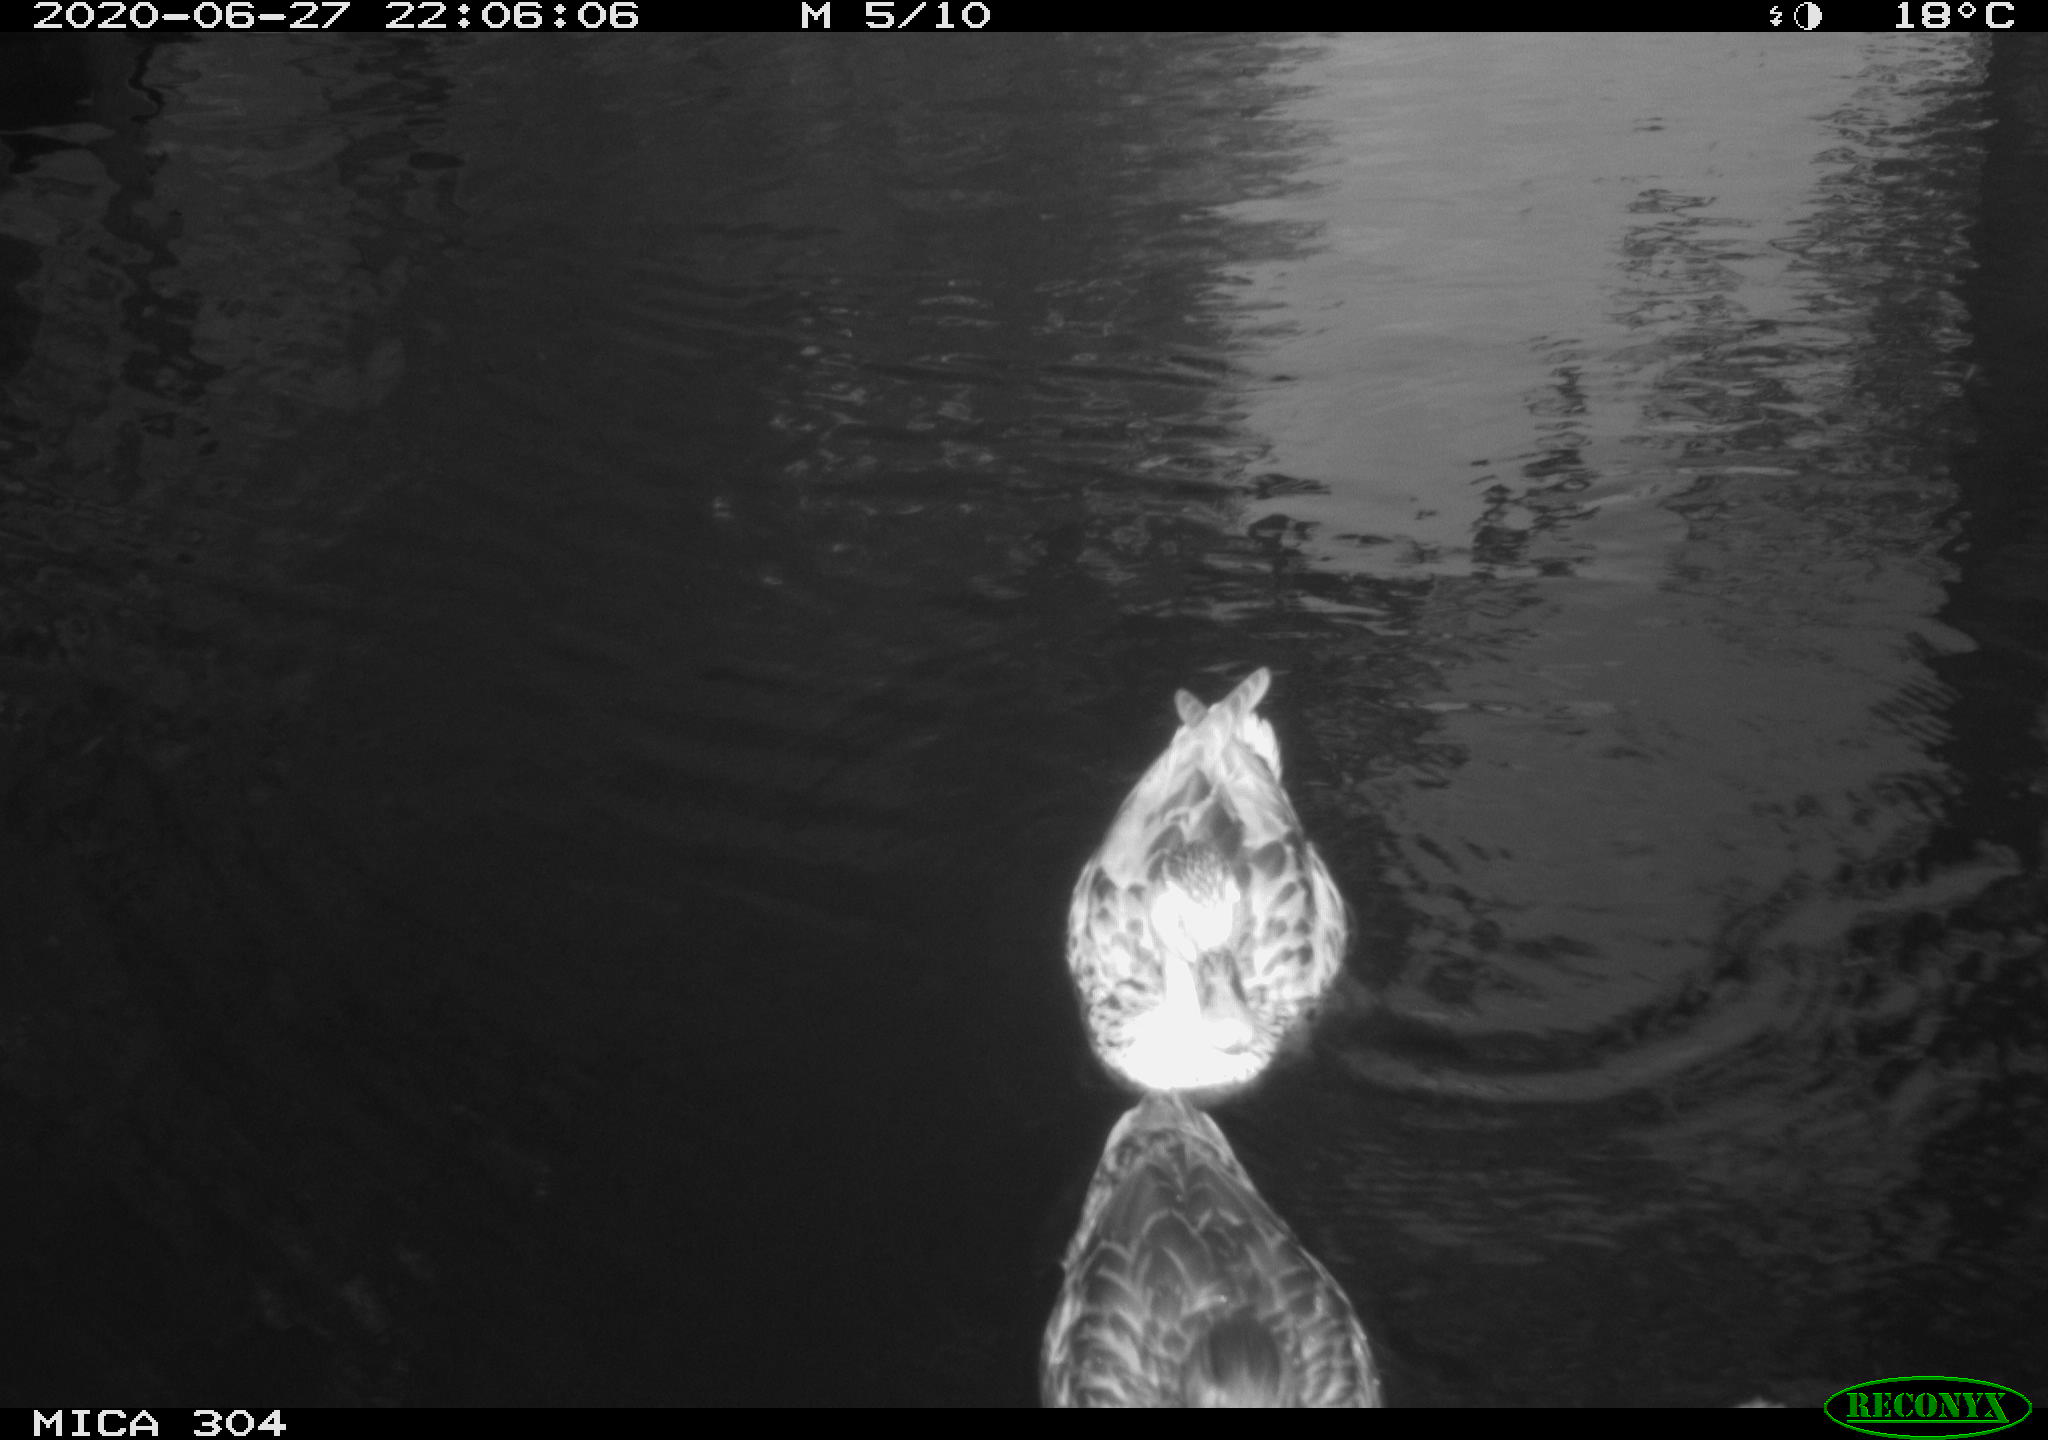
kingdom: Animalia
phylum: Chordata
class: Aves
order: Anseriformes
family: Anatidae
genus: Anas
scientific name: Anas platyrhynchos
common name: Mallard
